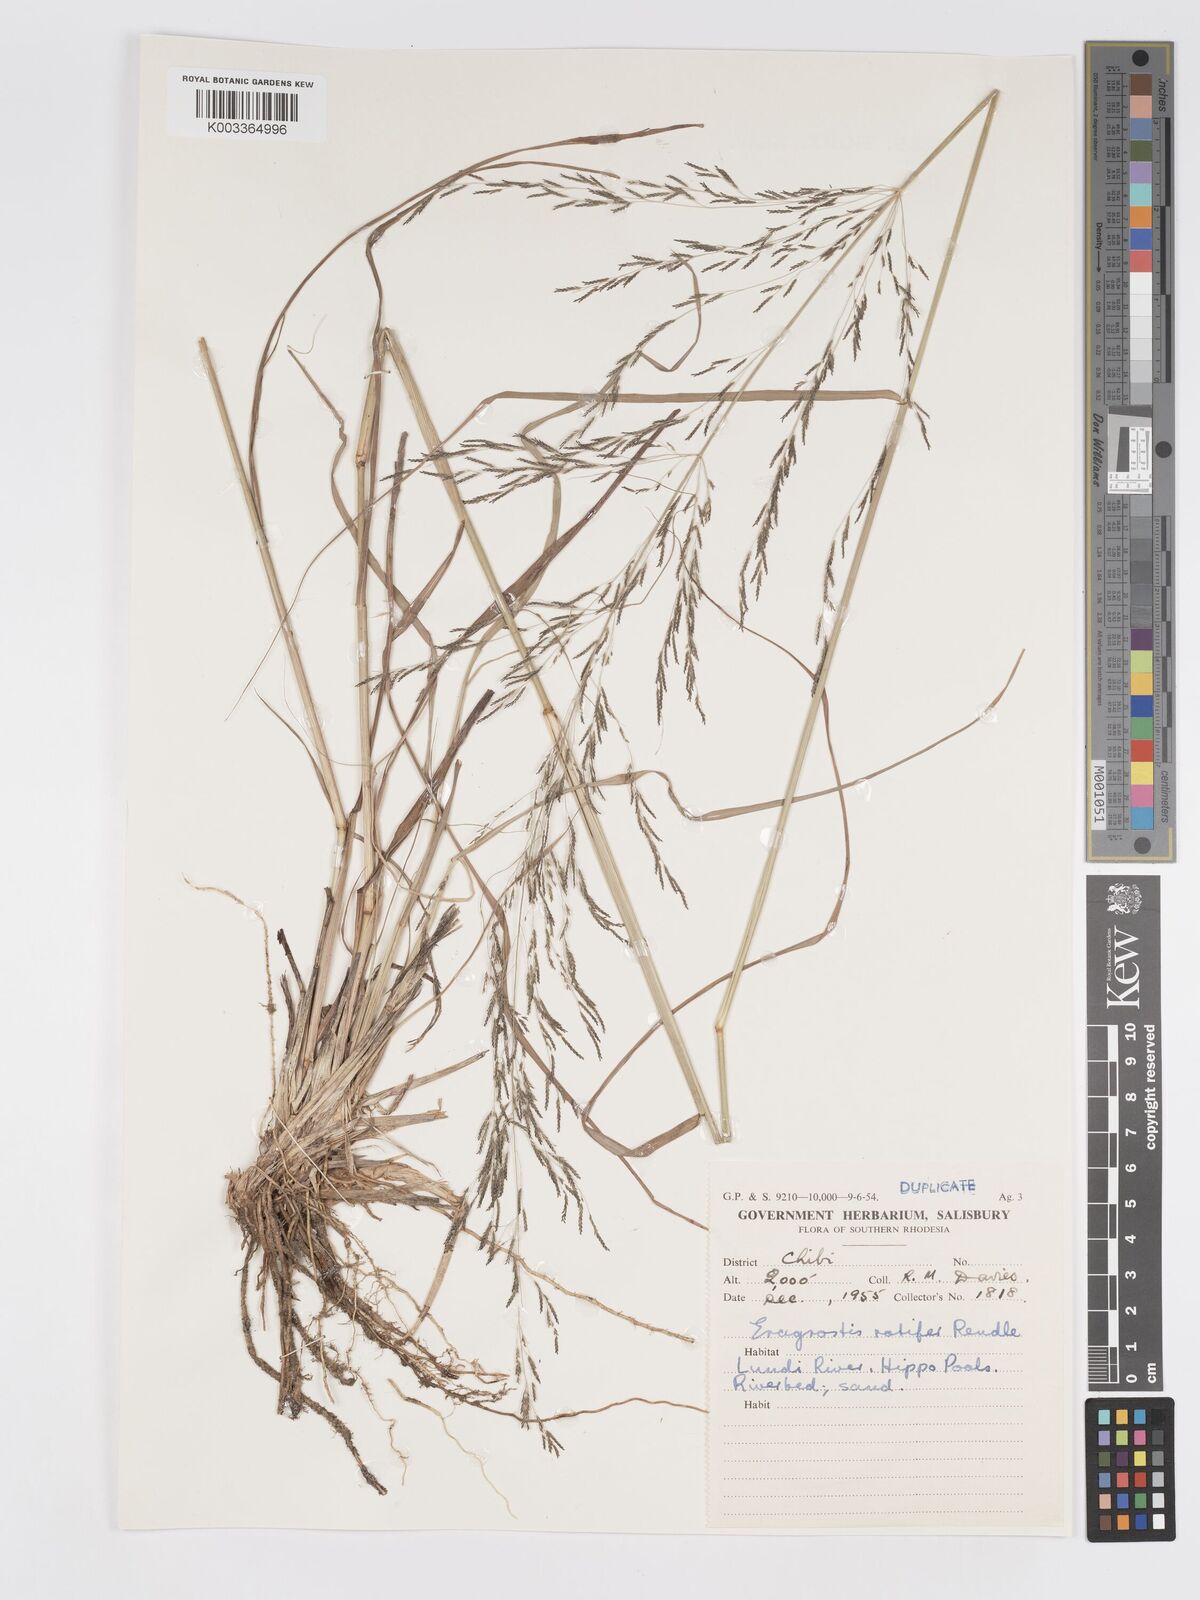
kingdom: Plantae
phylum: Tracheophyta
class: Liliopsida
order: Poales
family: Poaceae
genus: Eragrostis
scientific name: Eragrostis rotifer
